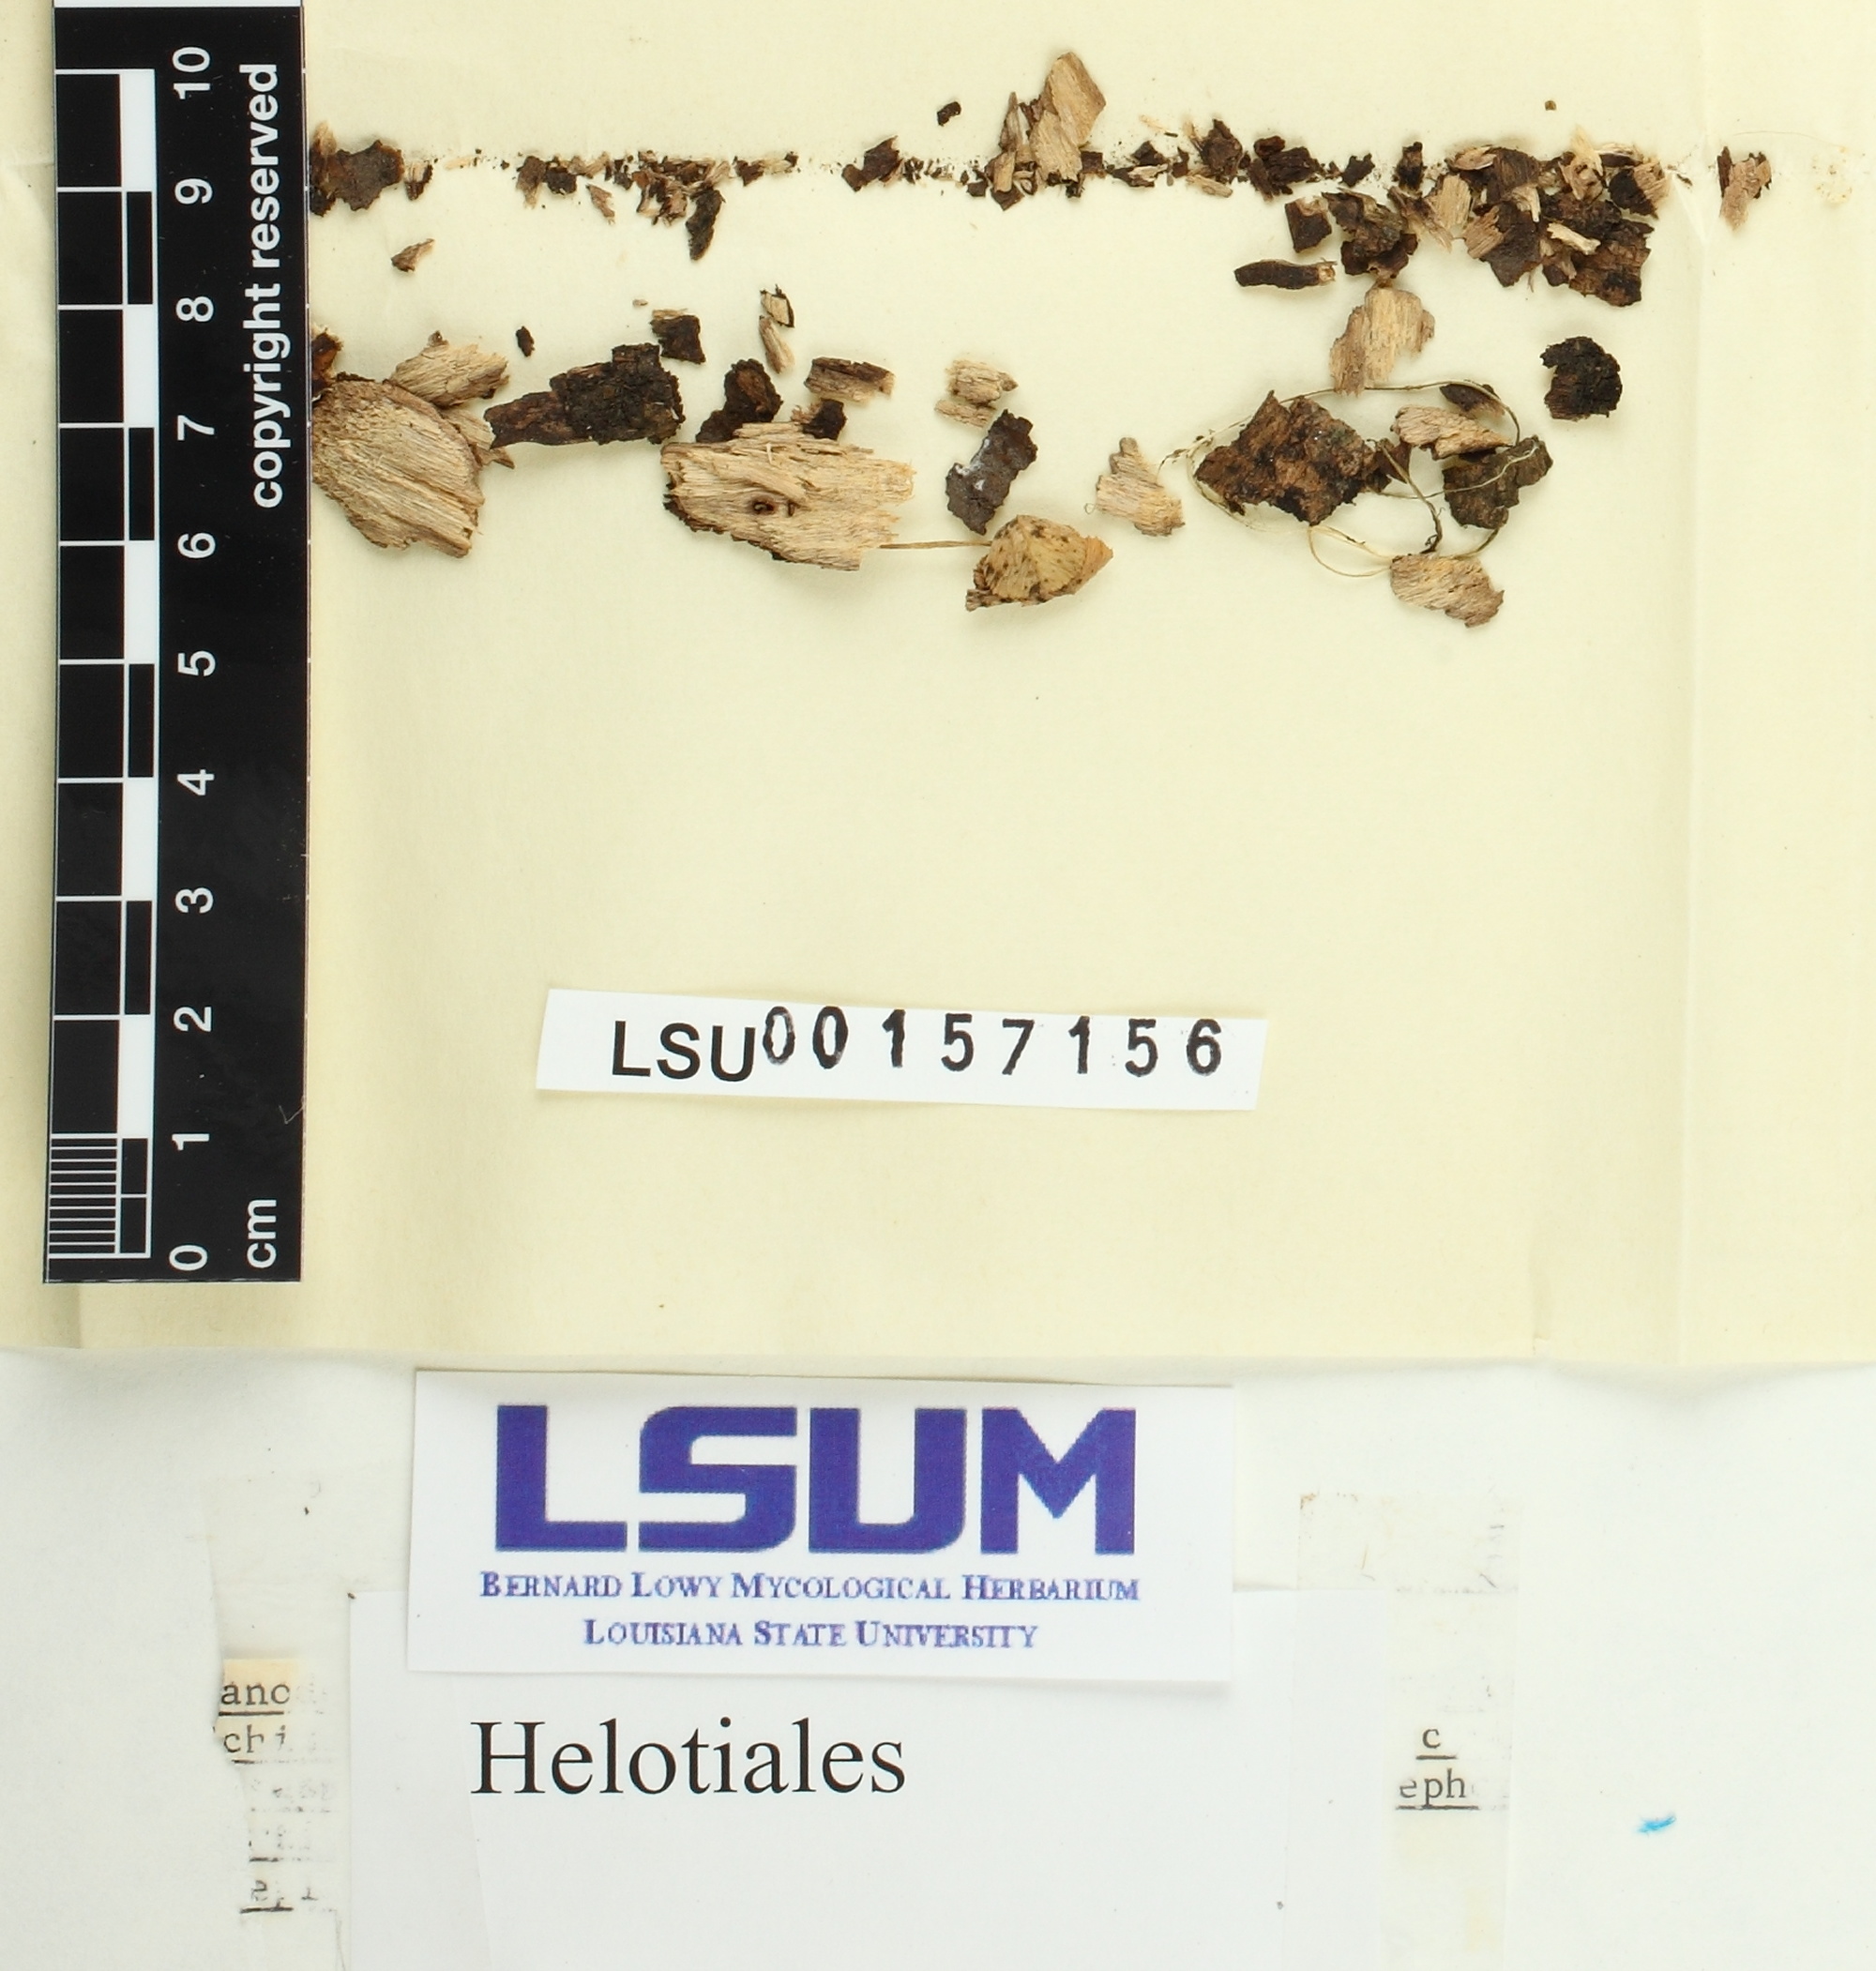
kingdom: Fungi
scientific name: Fungi
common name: Fungi
